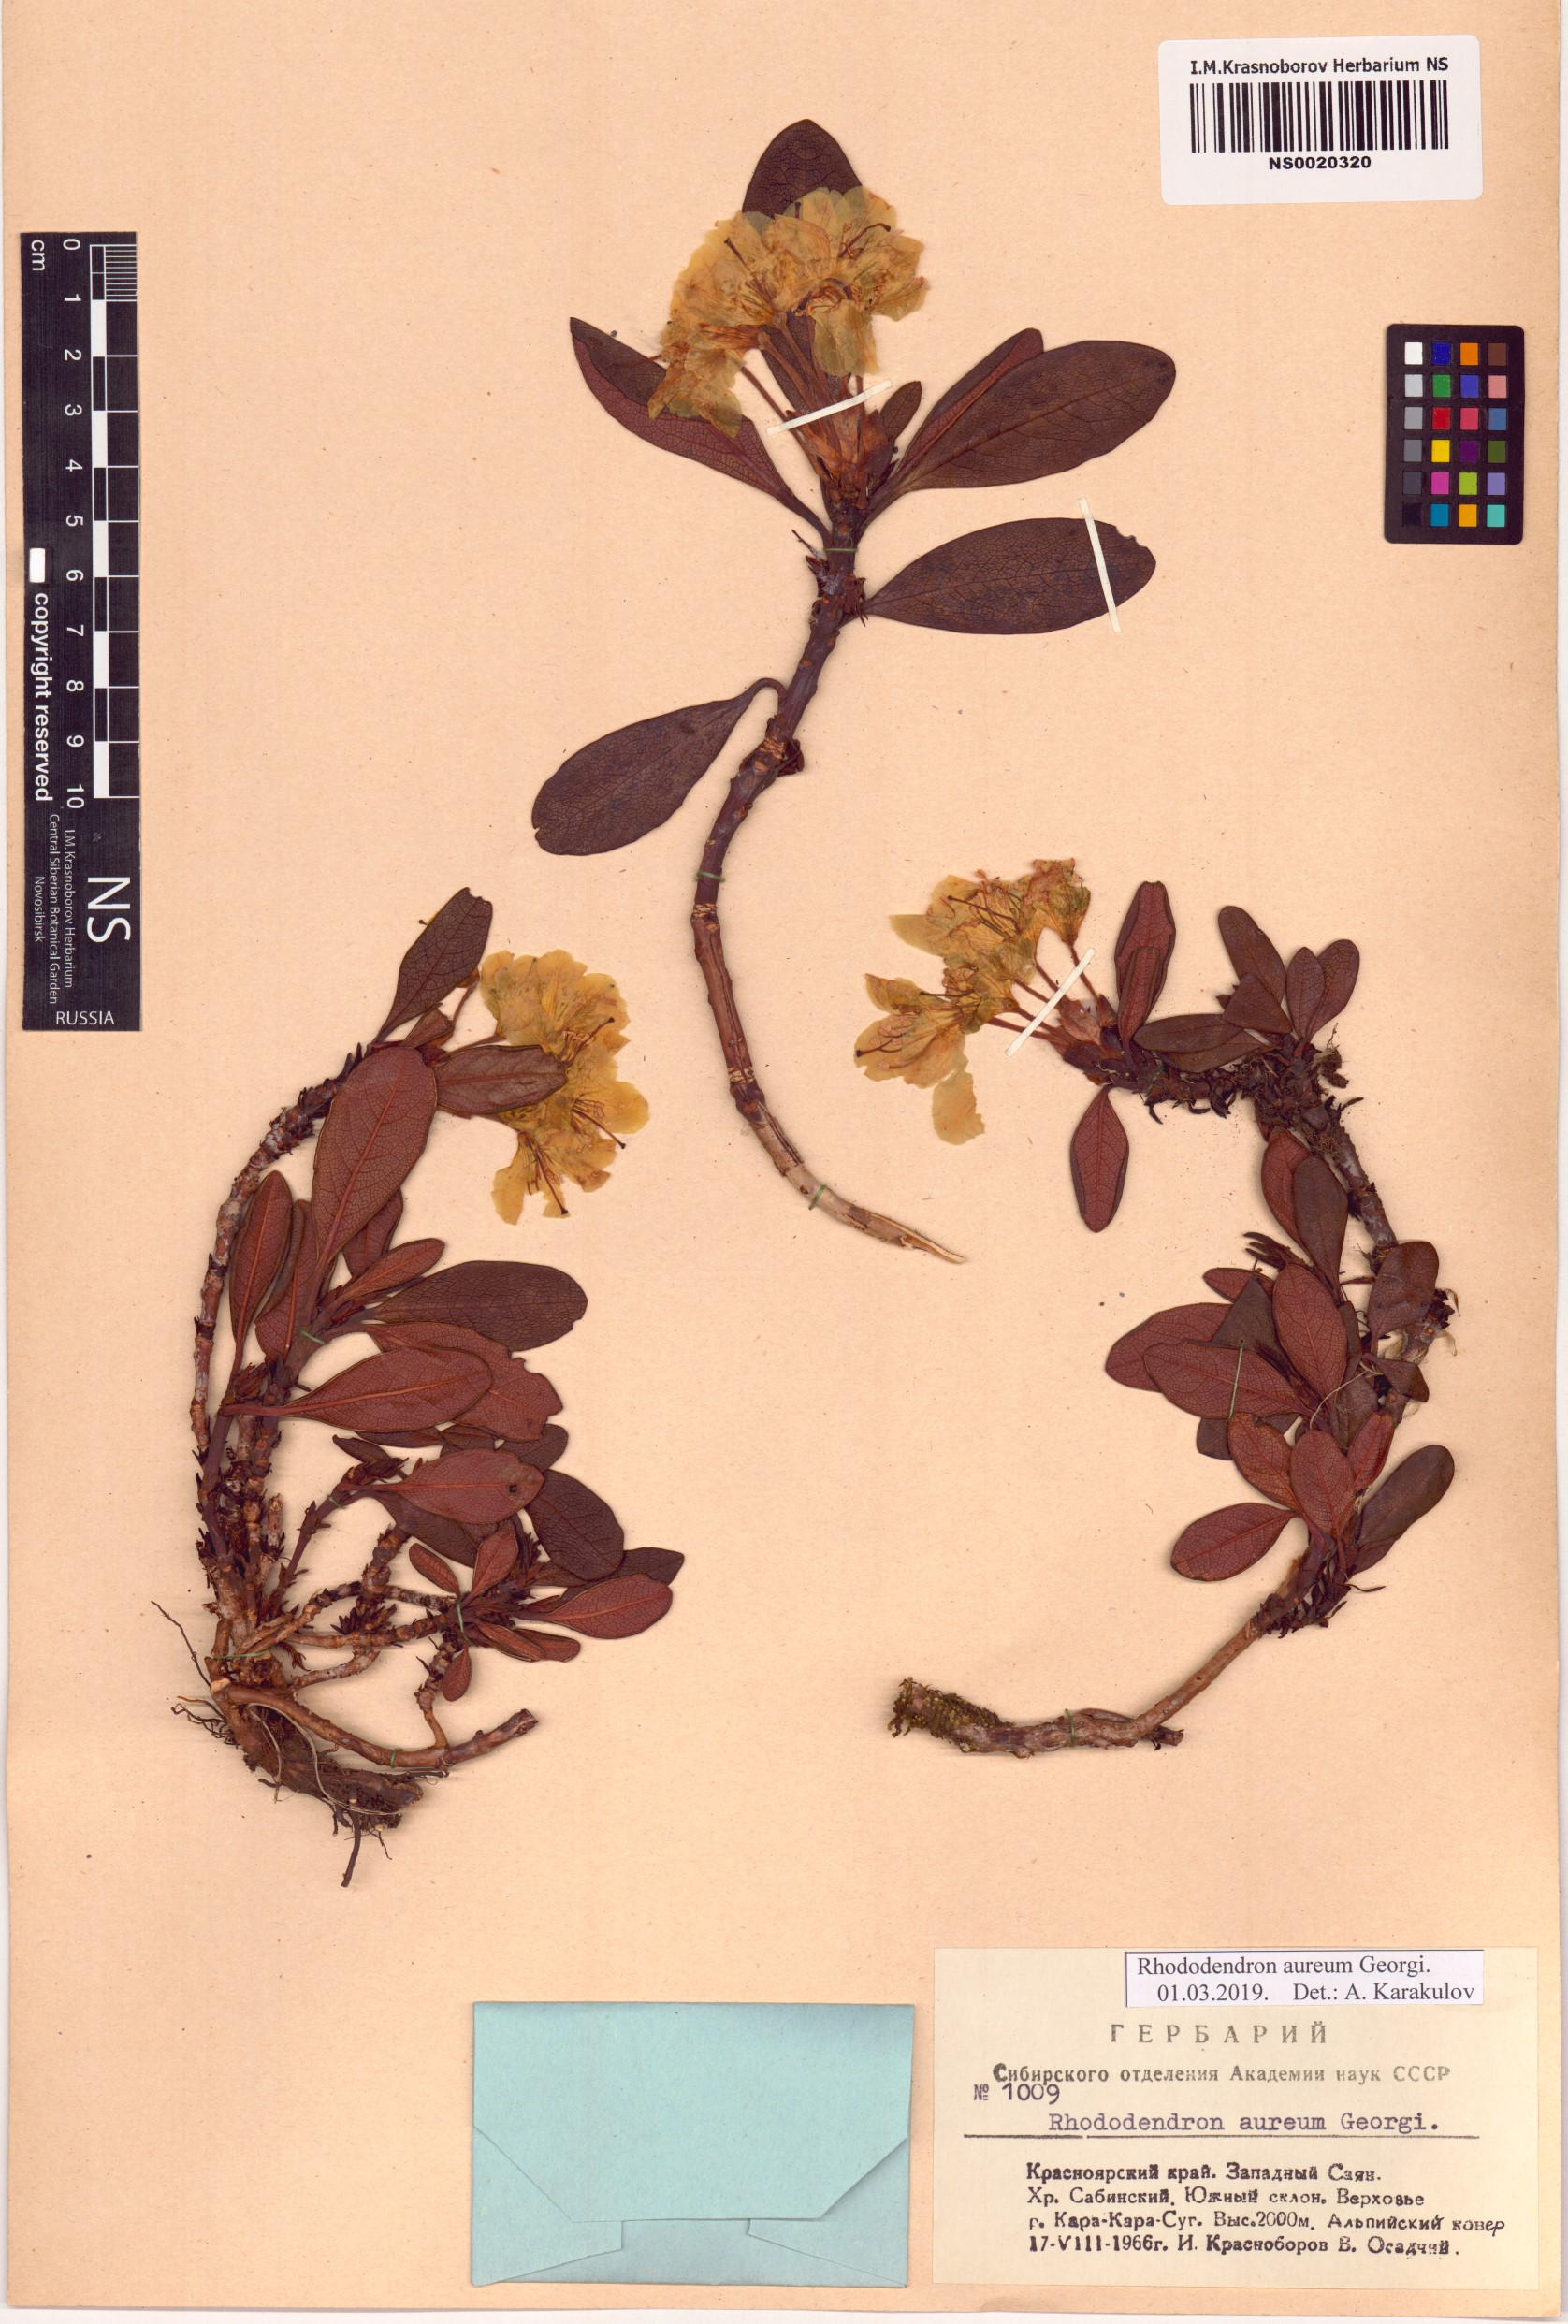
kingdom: Plantae
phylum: Tracheophyta
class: Magnoliopsida
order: Ericales
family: Ericaceae
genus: Rhododendron
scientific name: Rhododendron aureum
